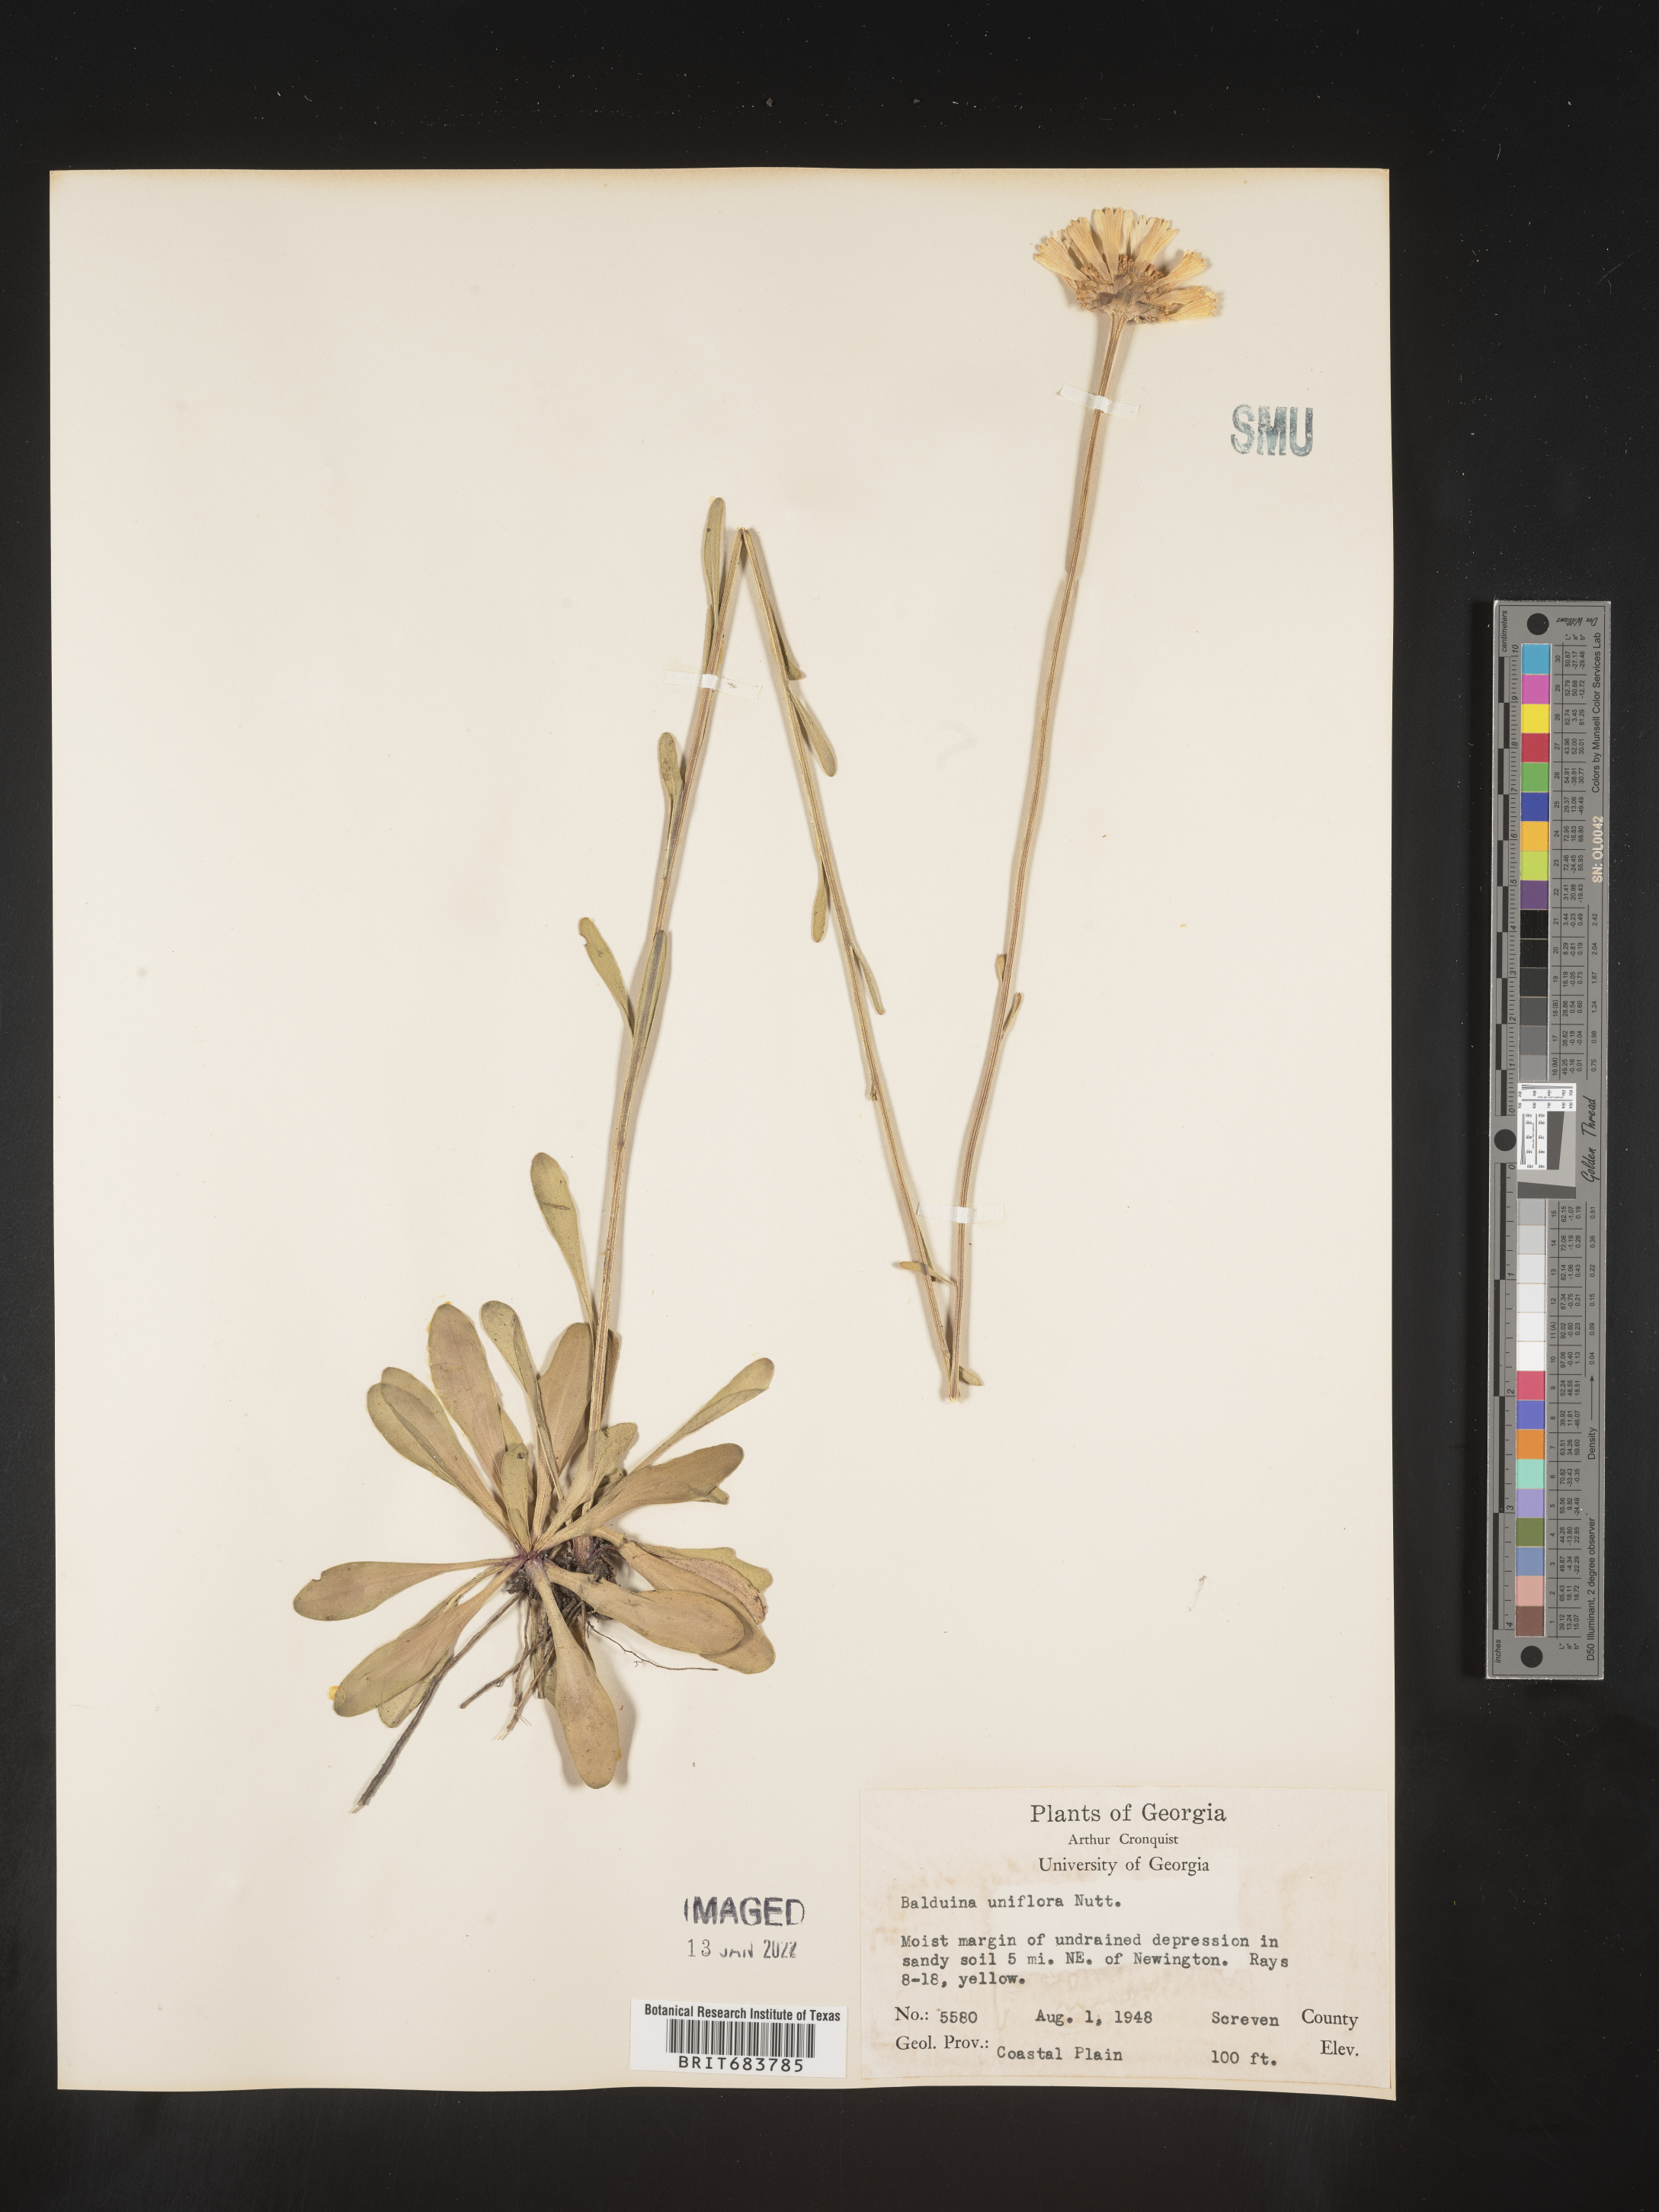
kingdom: Plantae
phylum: Tracheophyta
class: Magnoliopsida
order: Asterales
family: Asteraceae
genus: Balduina
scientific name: Balduina uniflora
